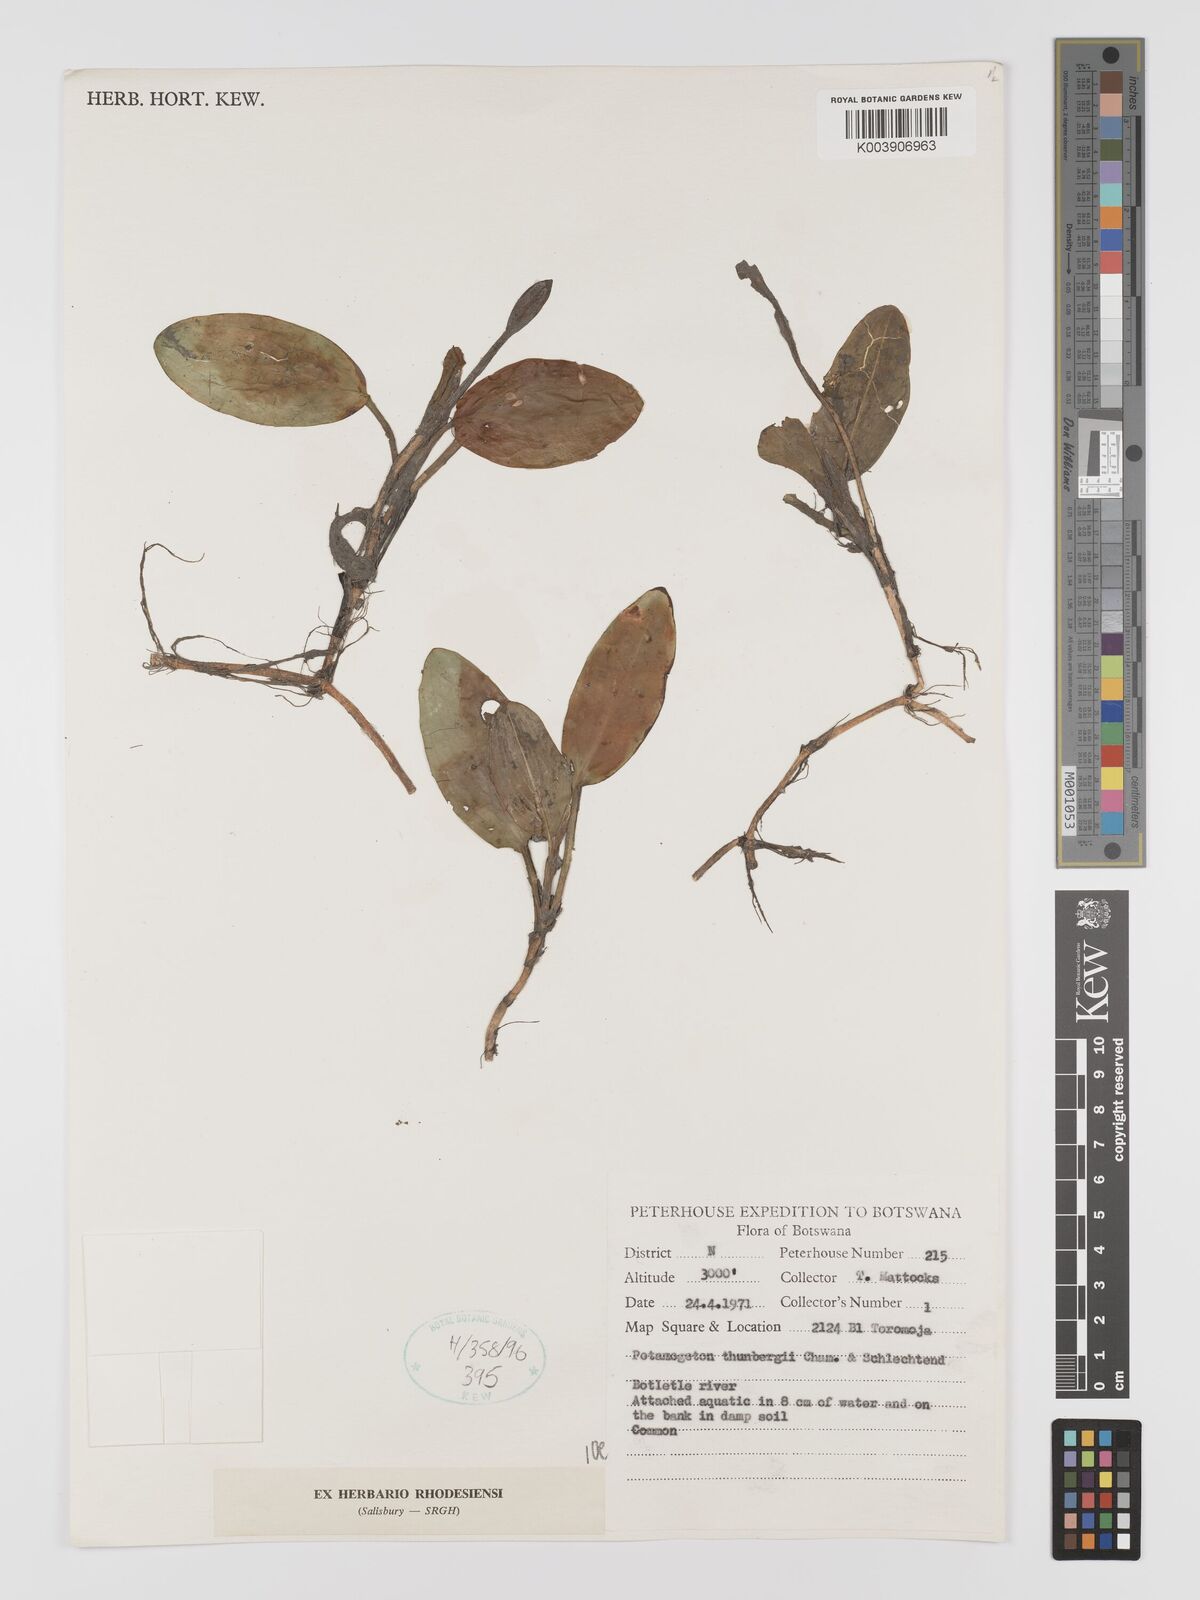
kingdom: Plantae
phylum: Tracheophyta
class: Liliopsida
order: Alismatales
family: Potamogetonaceae
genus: Potamogeton
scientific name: Potamogeton nodosus
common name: Loddon pondweed
